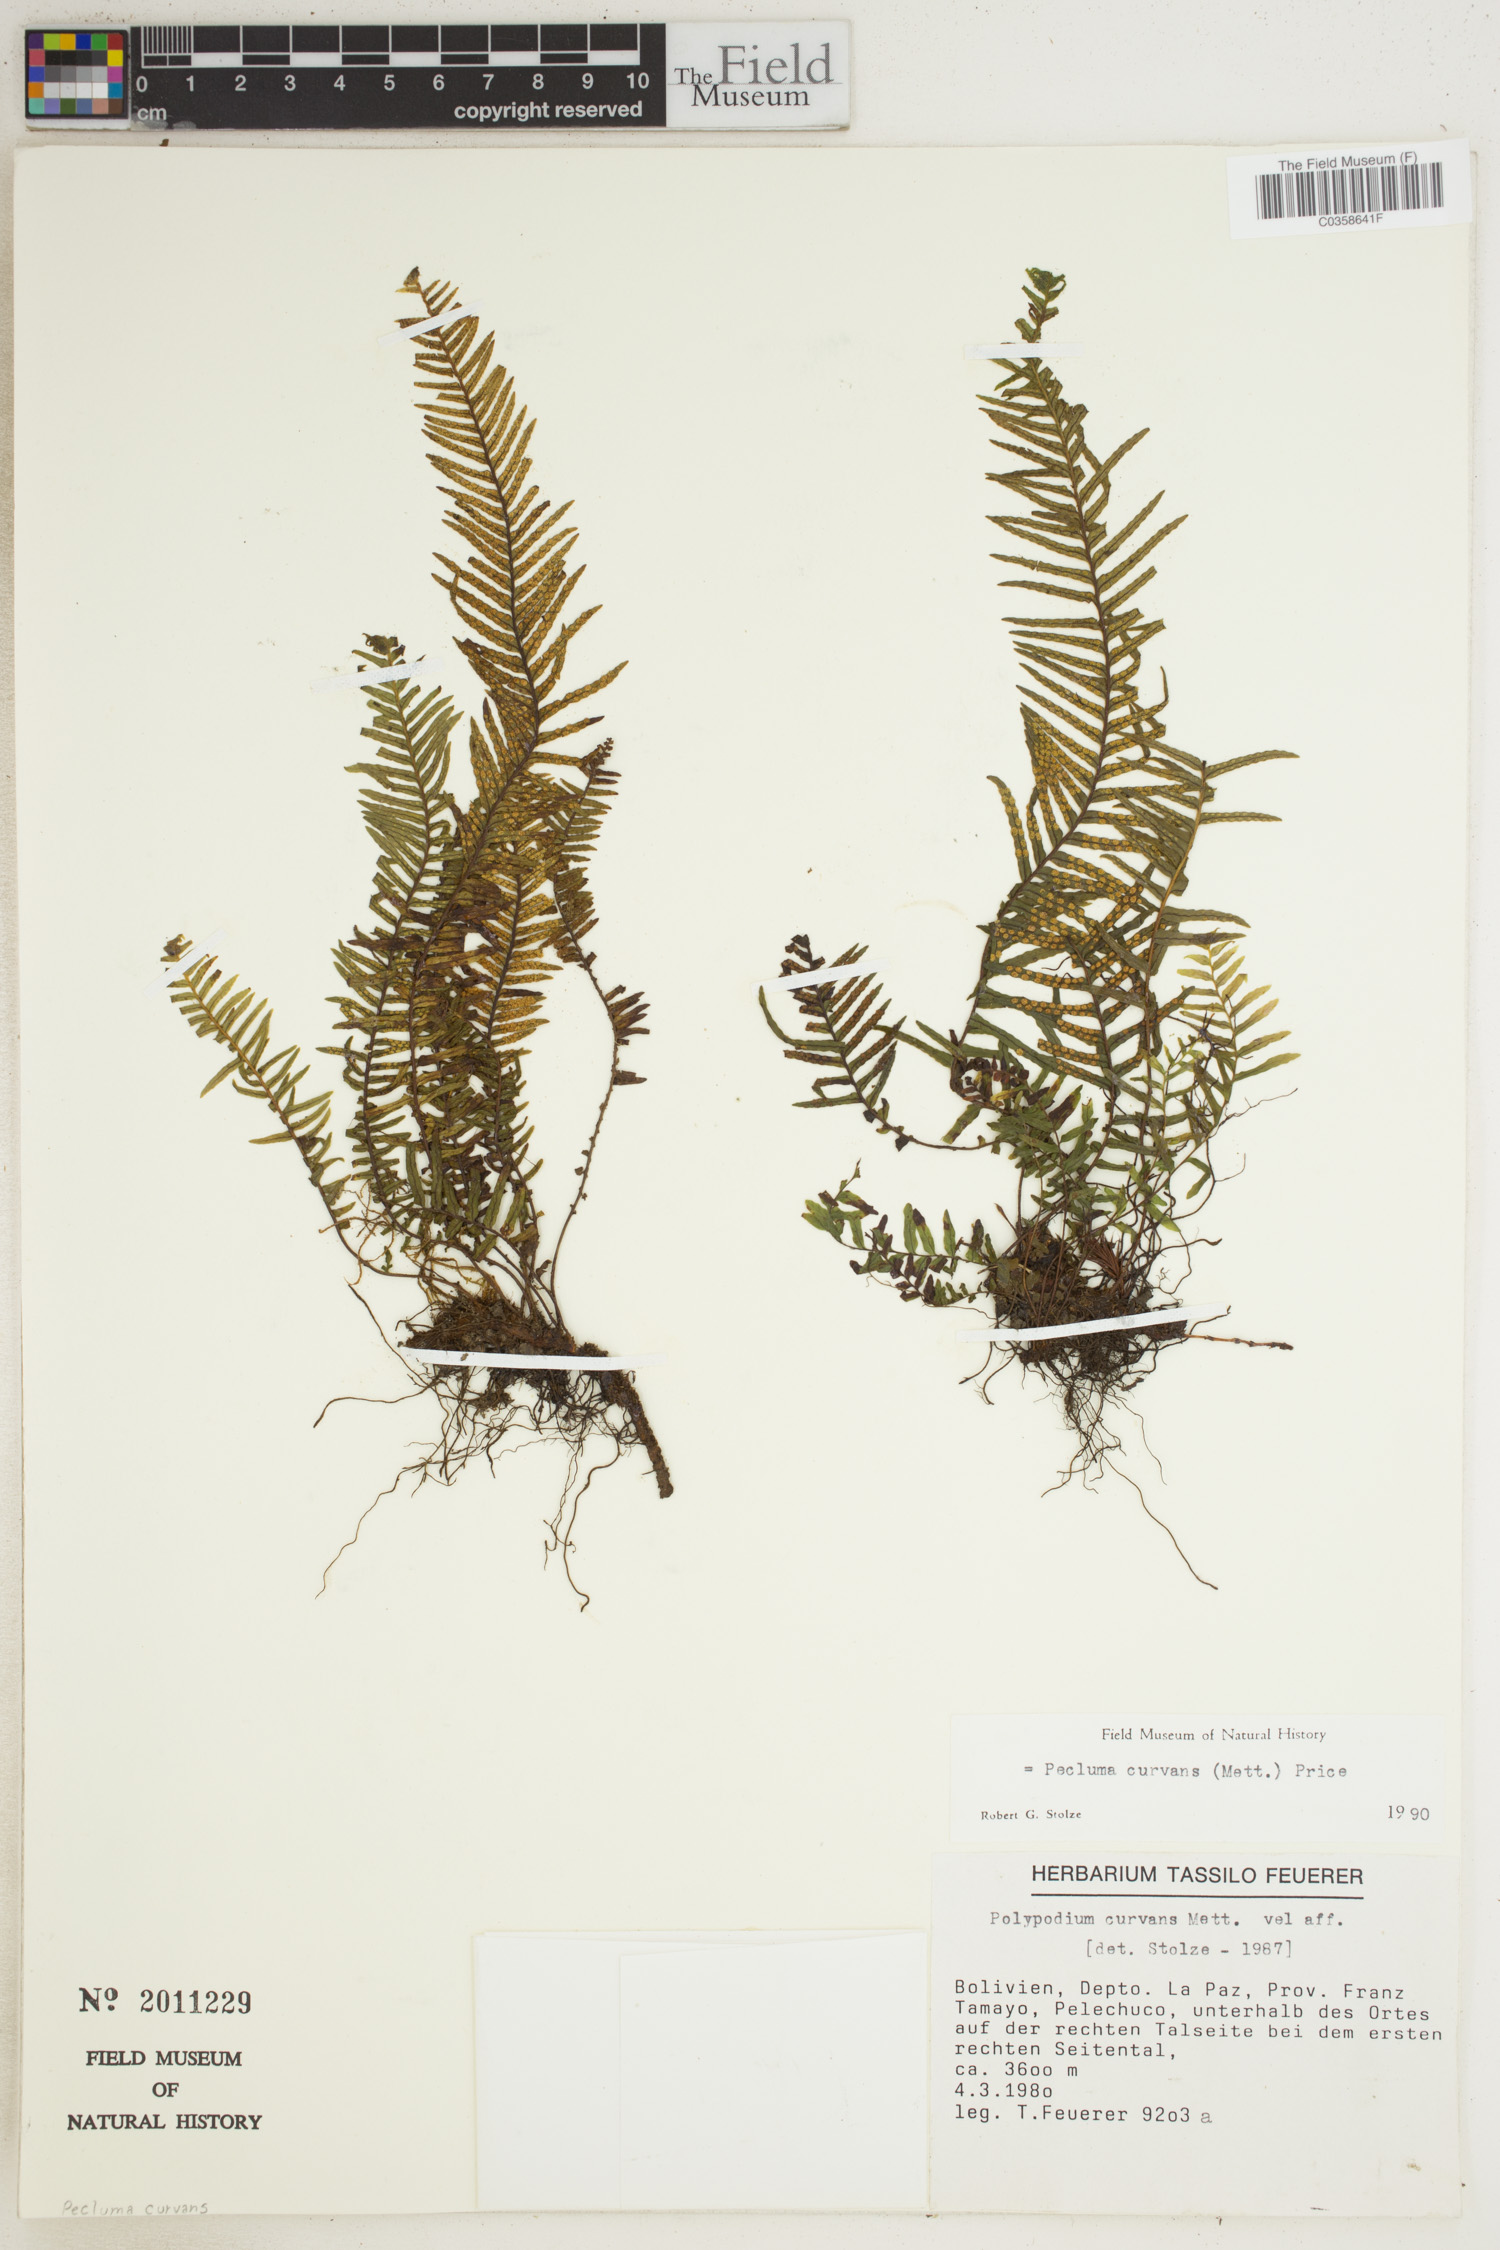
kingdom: Plantae
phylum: Tracheophyta
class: Polypodiopsida
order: Polypodiales
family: Polypodiaceae
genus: Pecluma
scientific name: Pecluma curvans
